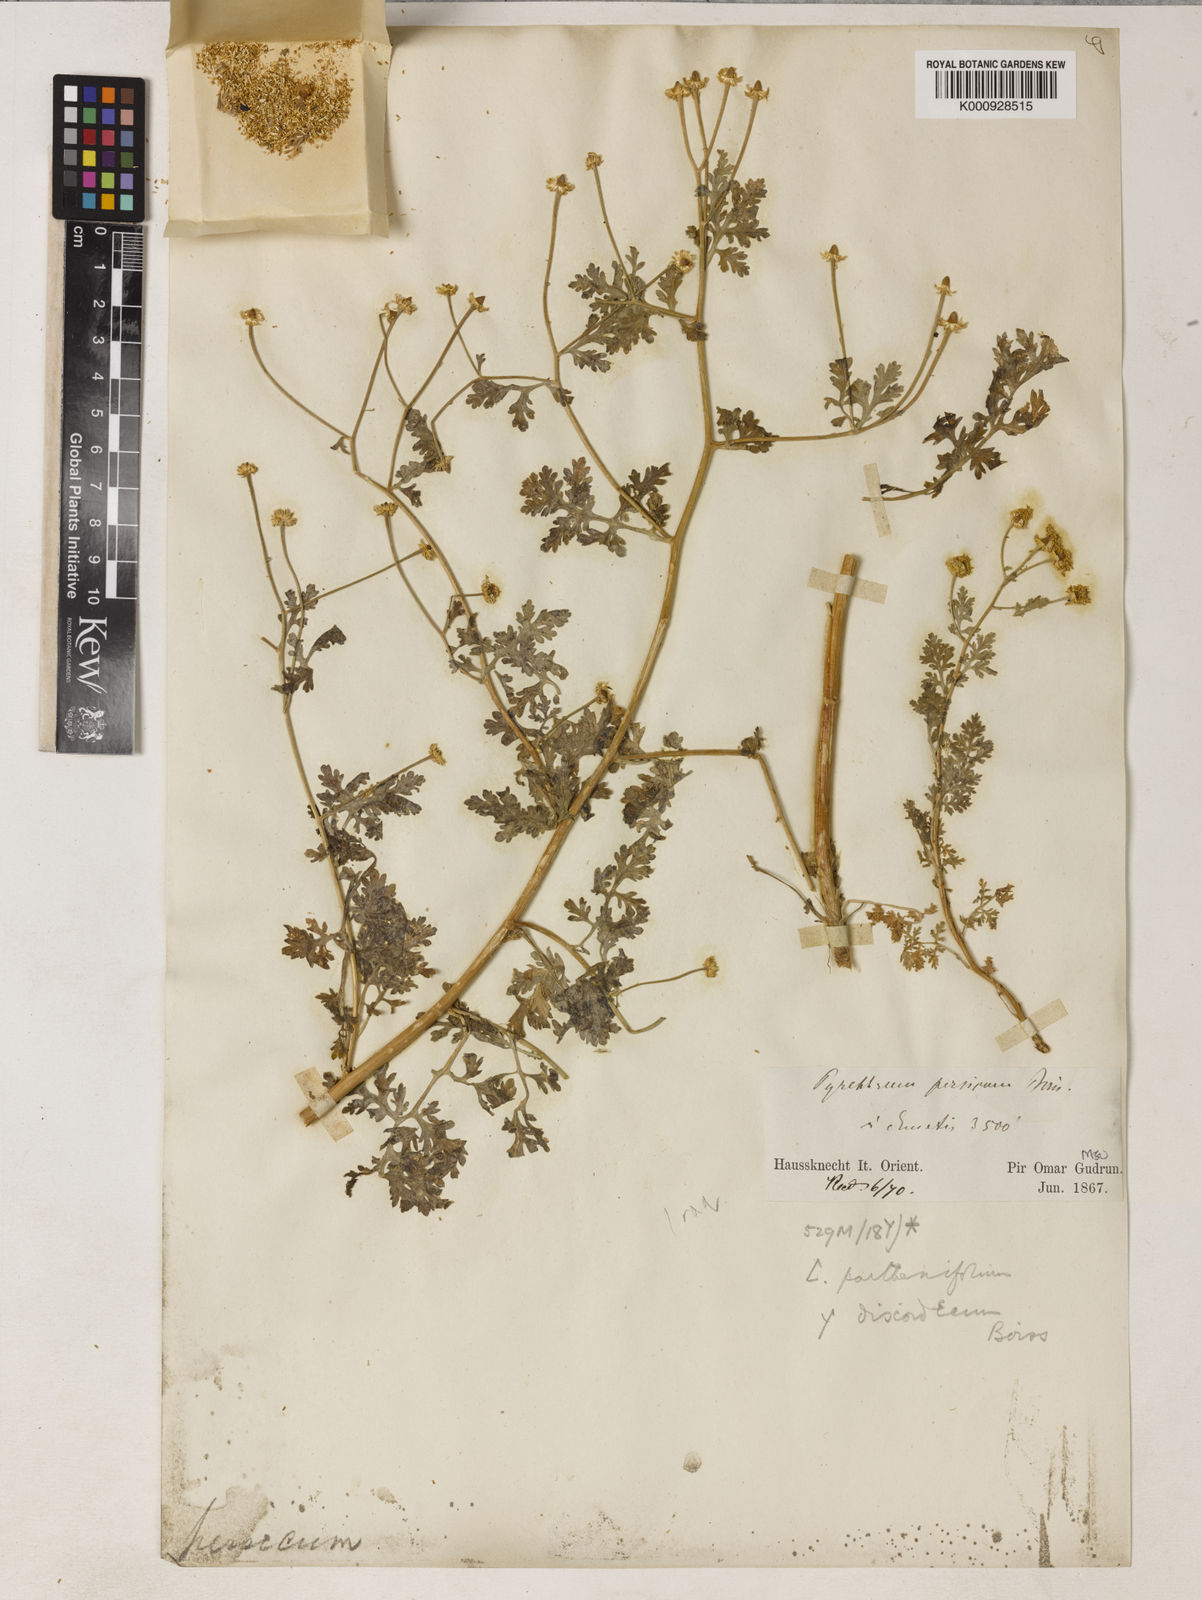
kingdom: Plantae
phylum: Tracheophyta
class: Magnoliopsida
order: Asterales
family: Asteraceae
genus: Tanacetum
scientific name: Tanacetum
